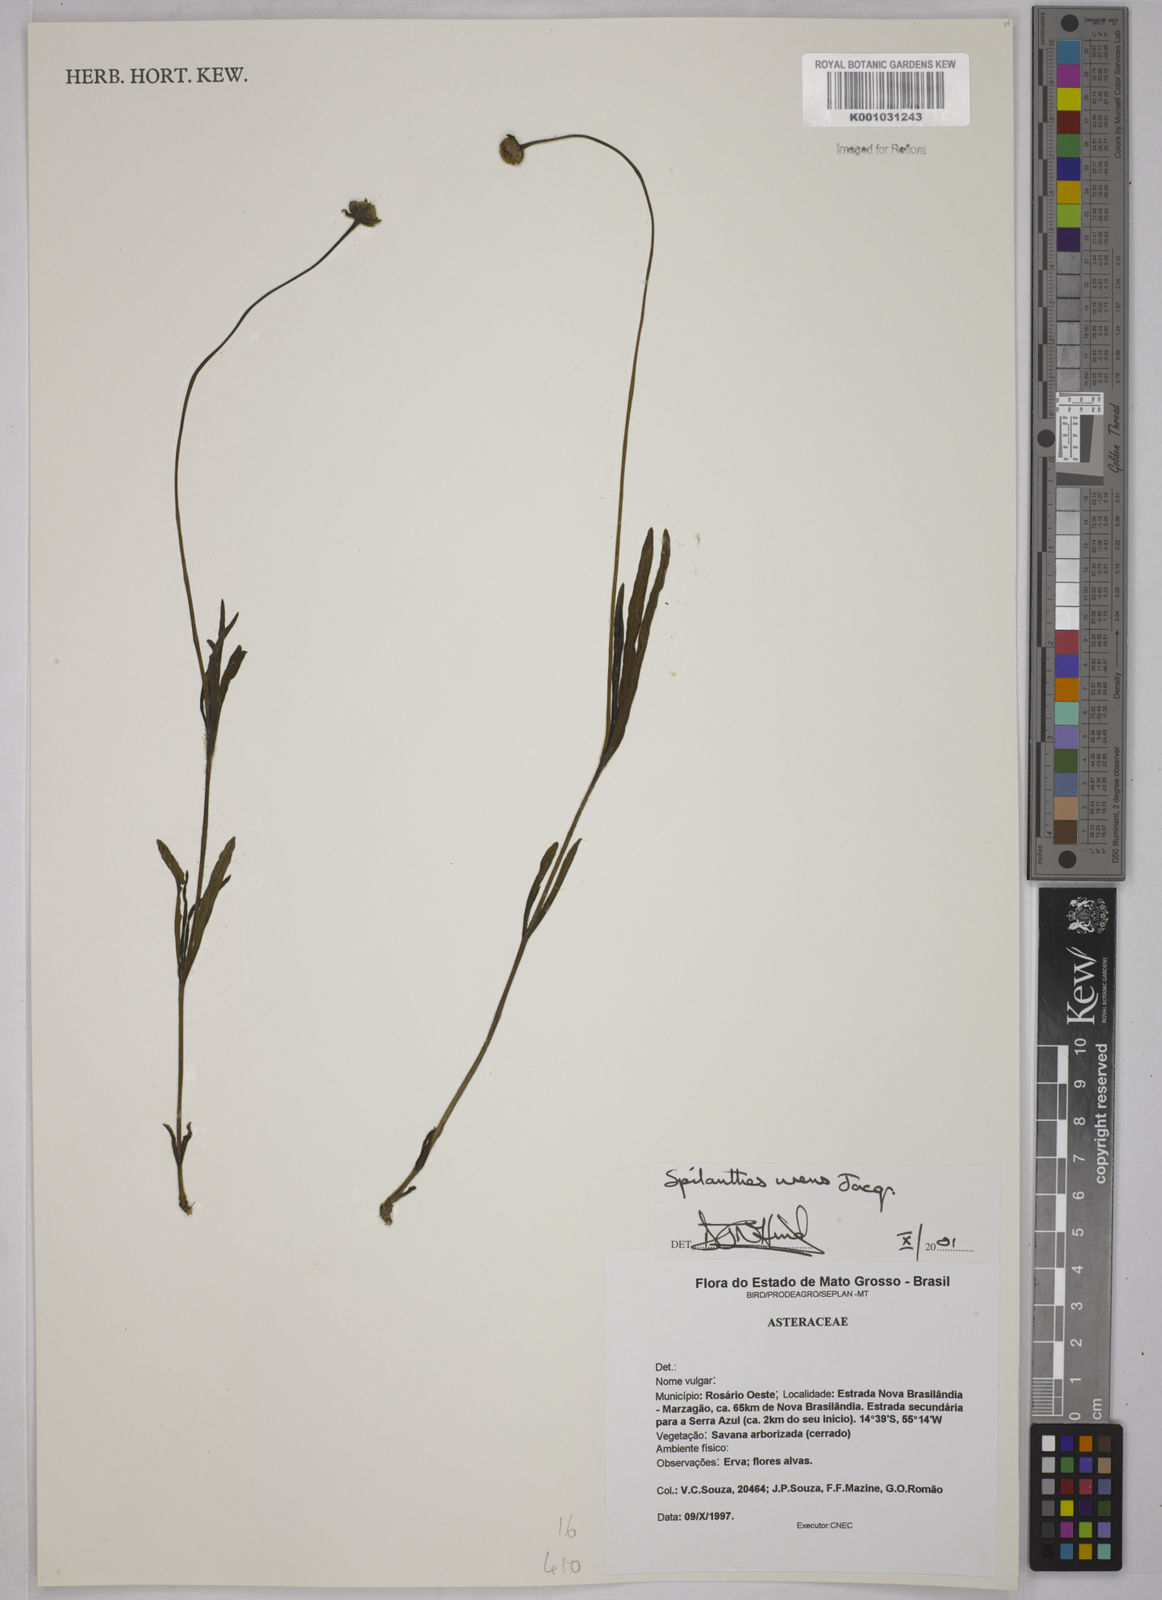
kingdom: Plantae
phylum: Tracheophyta
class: Magnoliopsida
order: Asterales
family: Asteraceae
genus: Spilanthes
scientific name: Spilanthes urens
